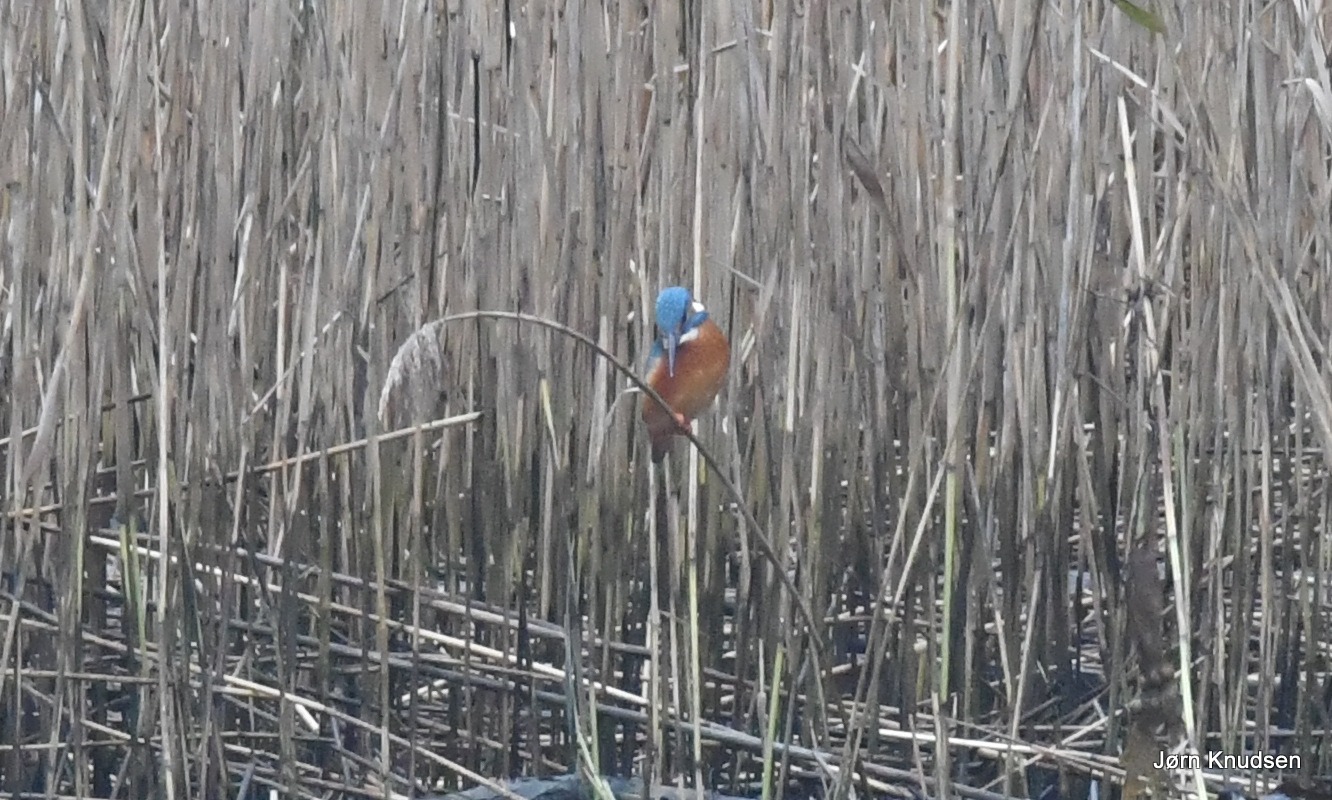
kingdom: Animalia
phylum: Chordata
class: Aves
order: Coraciiformes
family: Alcedinidae
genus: Alcedo
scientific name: Alcedo atthis
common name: Isfugl
